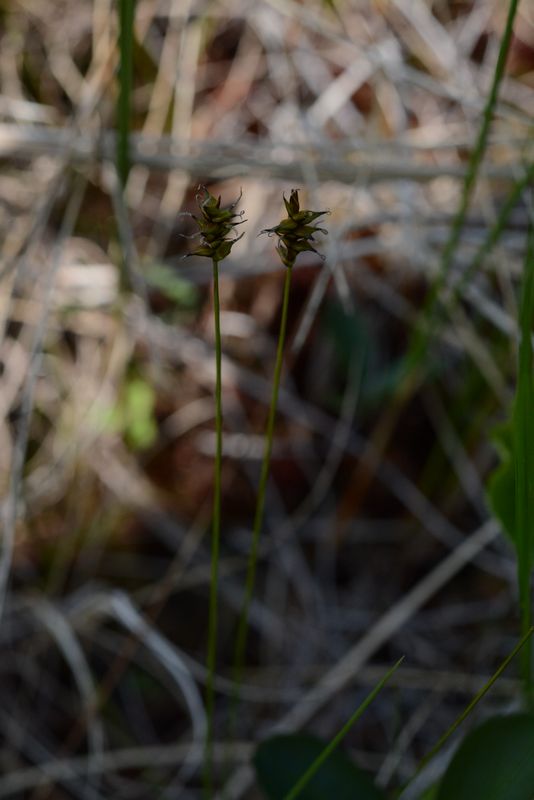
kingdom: Plantae
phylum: Tracheophyta
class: Liliopsida
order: Poales
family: Cyperaceae
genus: Carex
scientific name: Carex dioica
